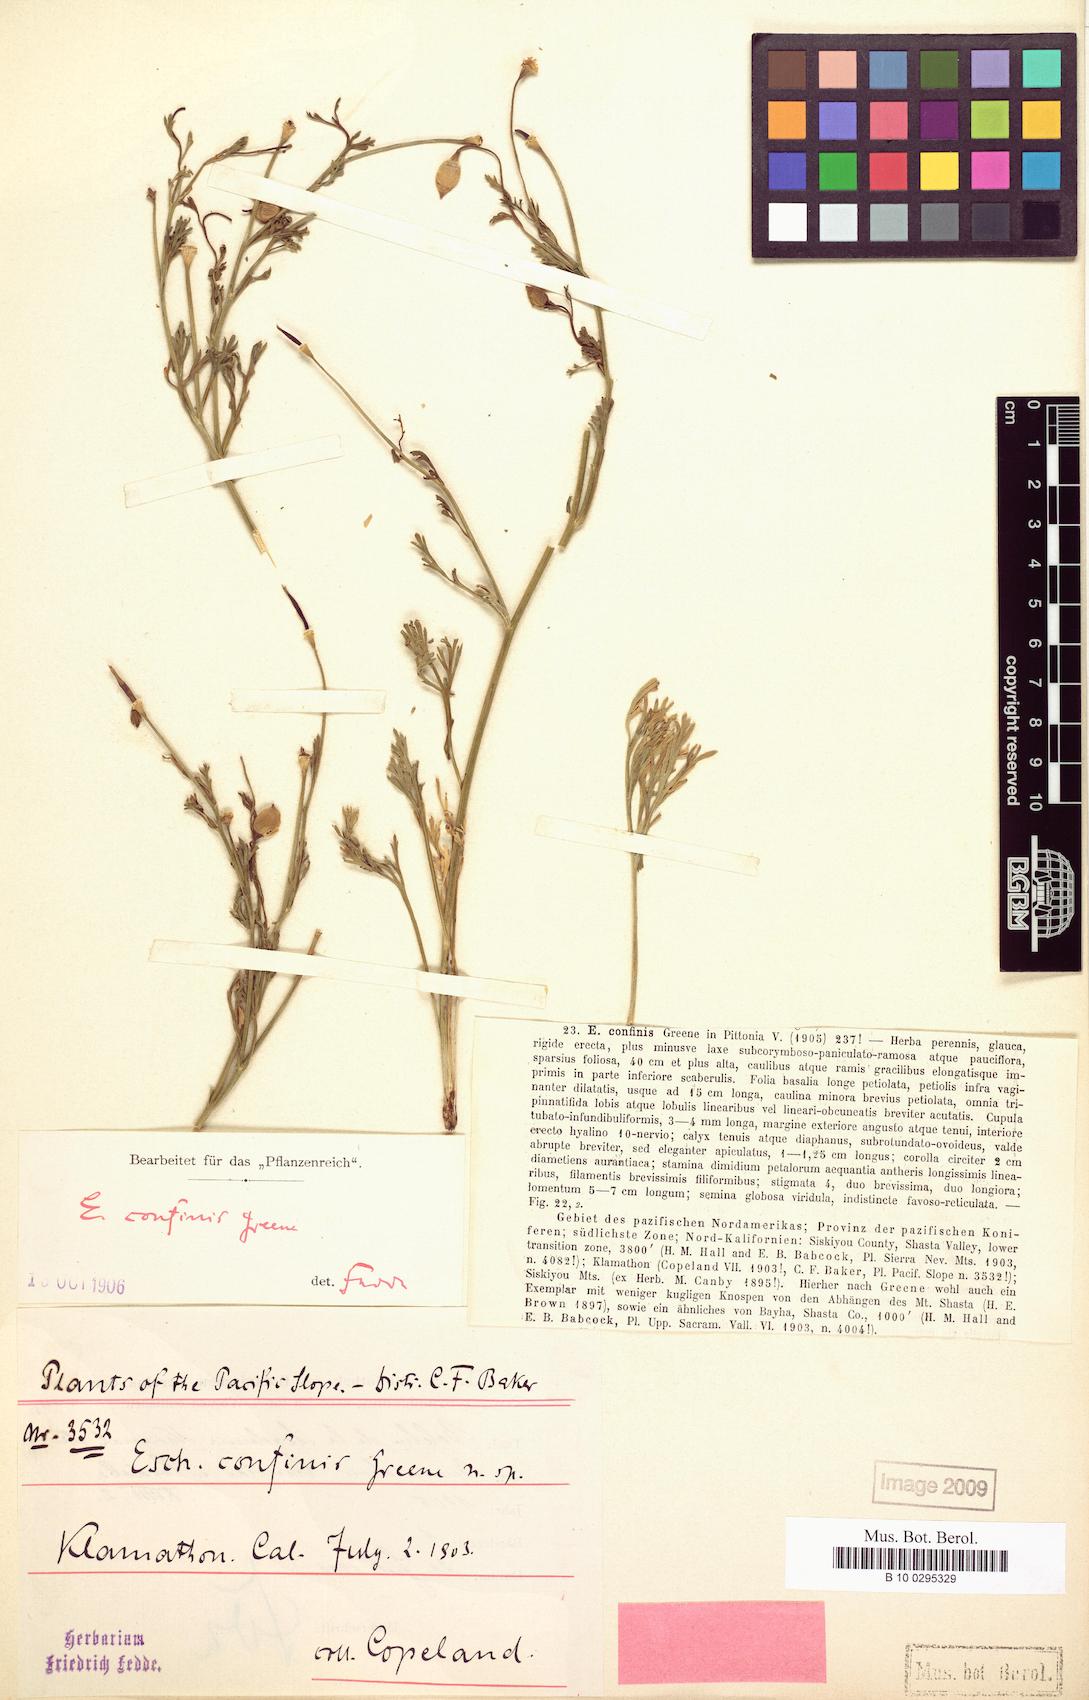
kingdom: Plantae
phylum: Tracheophyta
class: Magnoliopsida
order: Ranunculales
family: Papaveraceae
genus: Eschscholzia
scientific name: Eschscholzia californica
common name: California poppy
